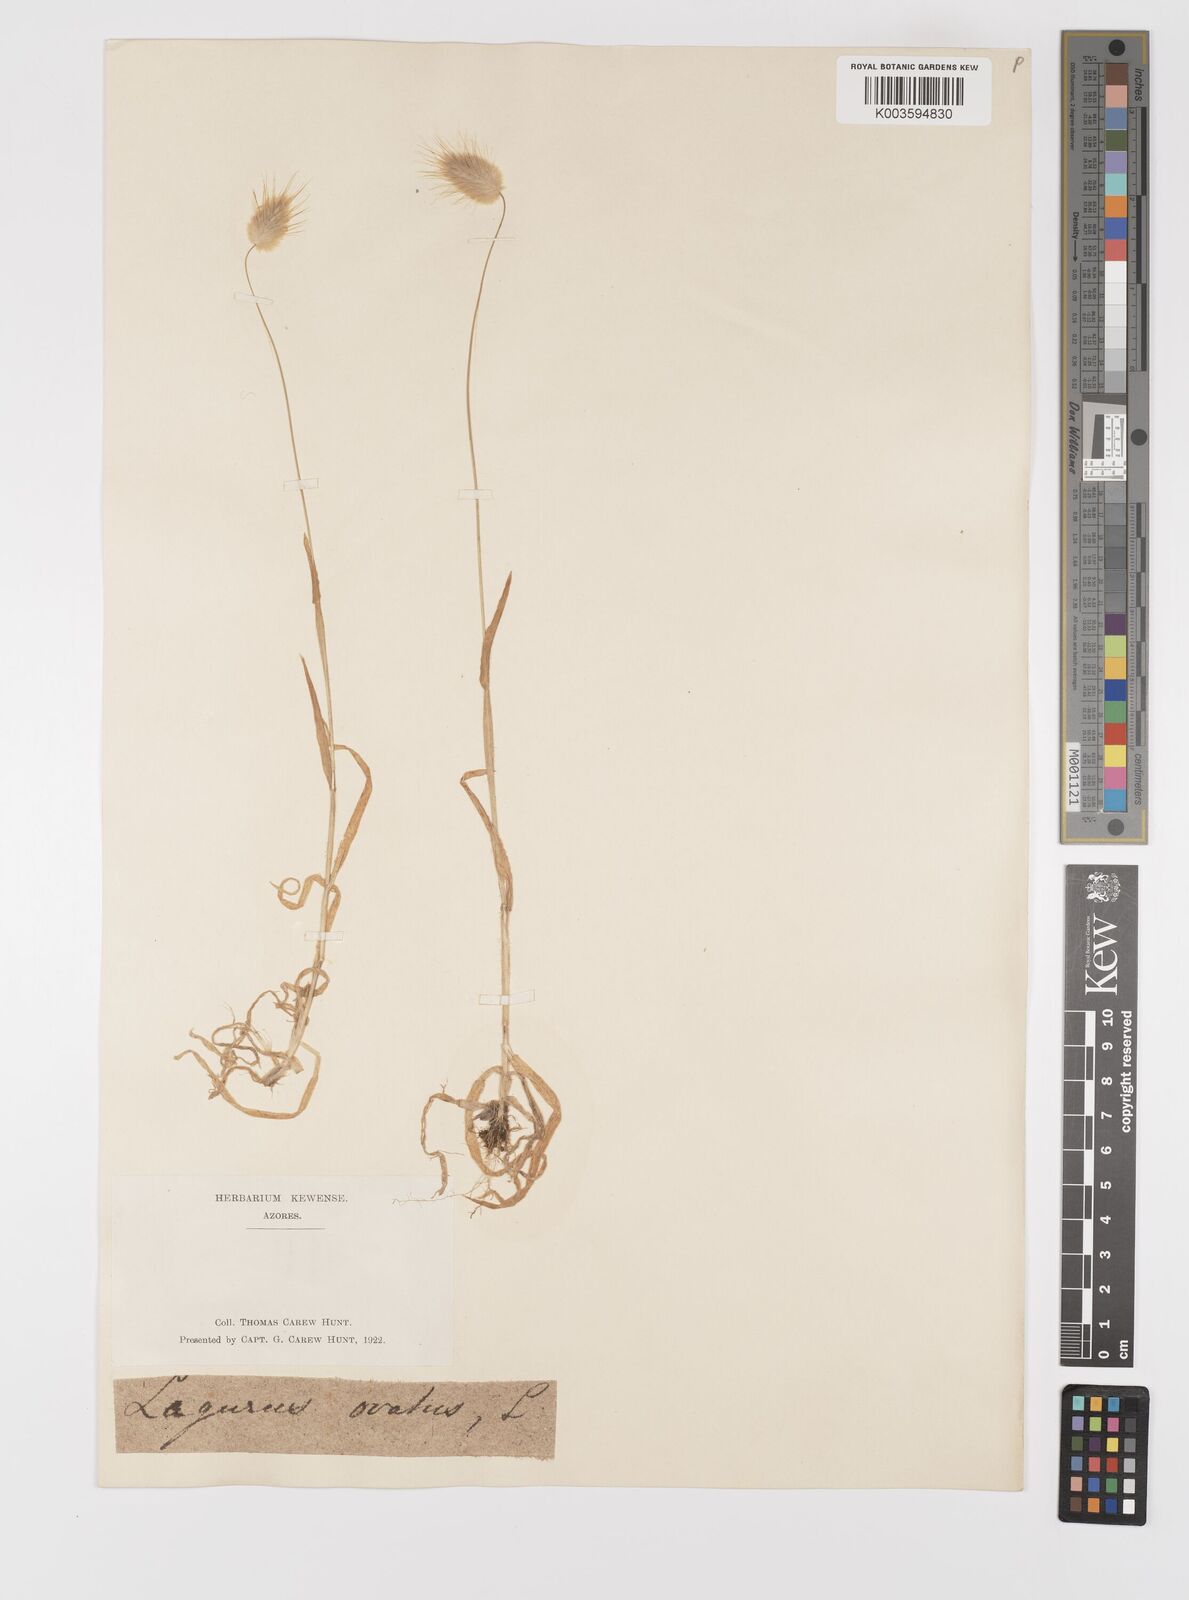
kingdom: Plantae
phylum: Tracheophyta
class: Liliopsida
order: Poales
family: Poaceae
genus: Lagurus
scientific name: Lagurus ovatus
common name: Hare's-tail
